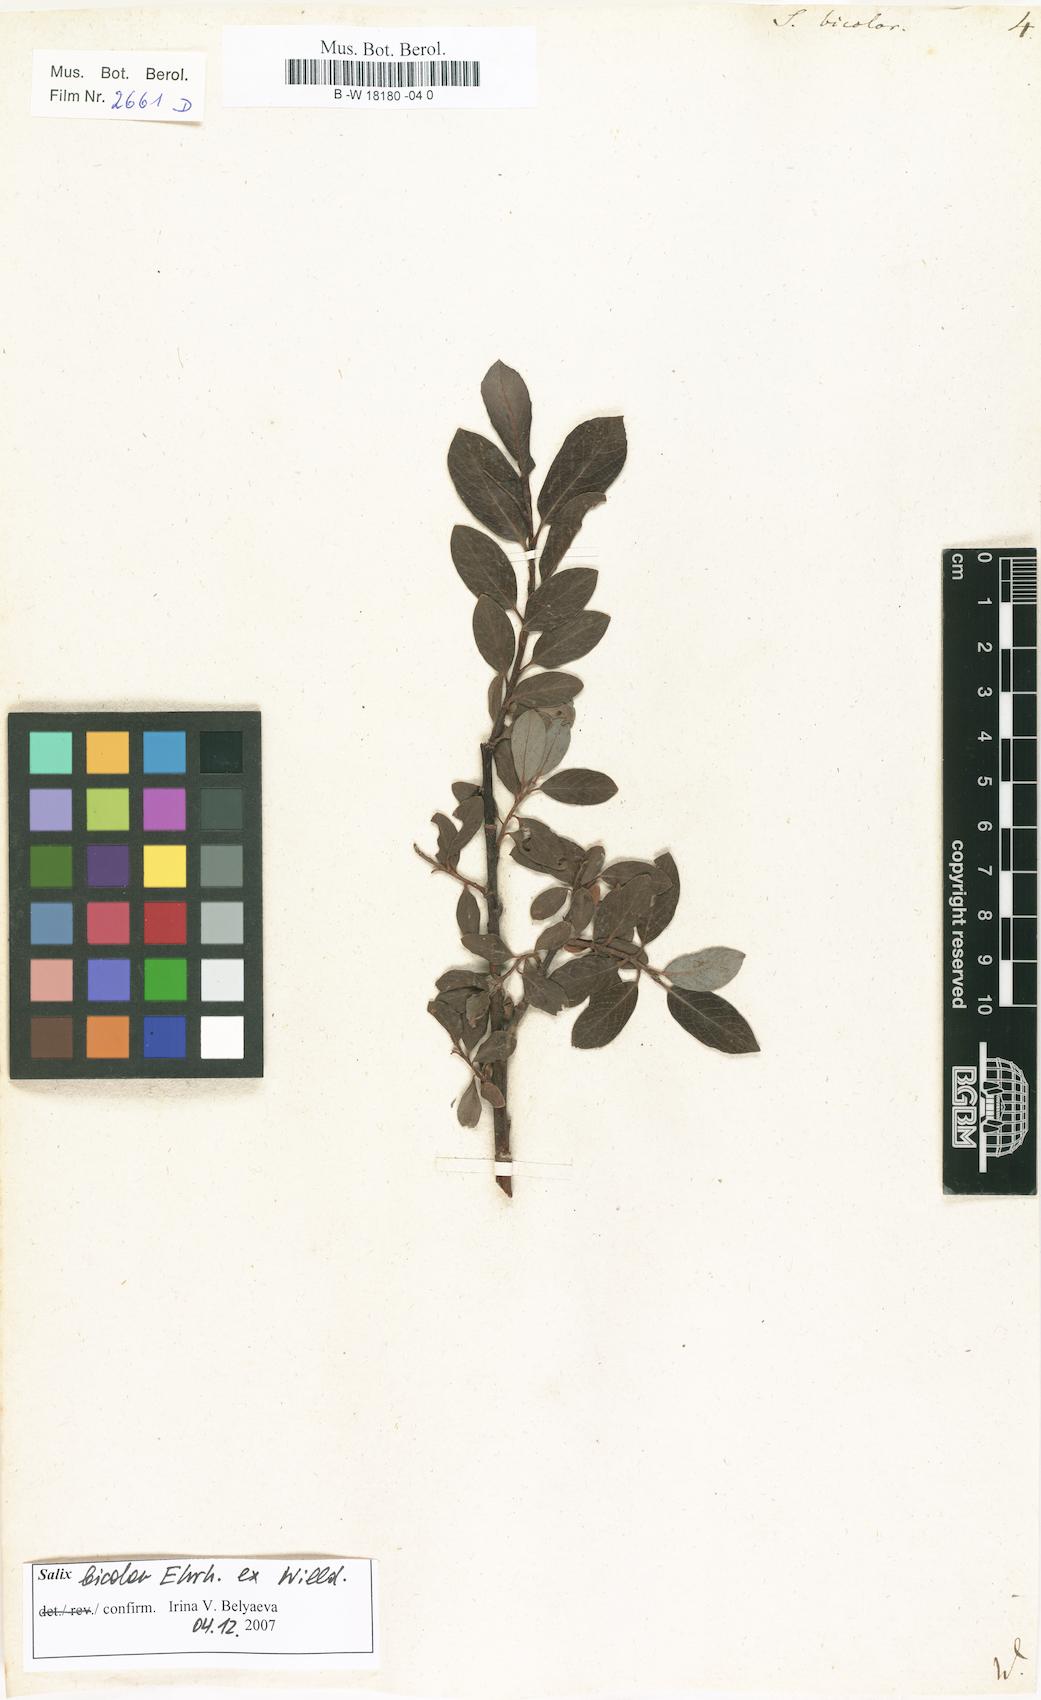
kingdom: Plantae
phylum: Tracheophyta
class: Magnoliopsida
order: Malpighiales
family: Salicaceae
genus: Salix
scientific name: Salix bicolor
